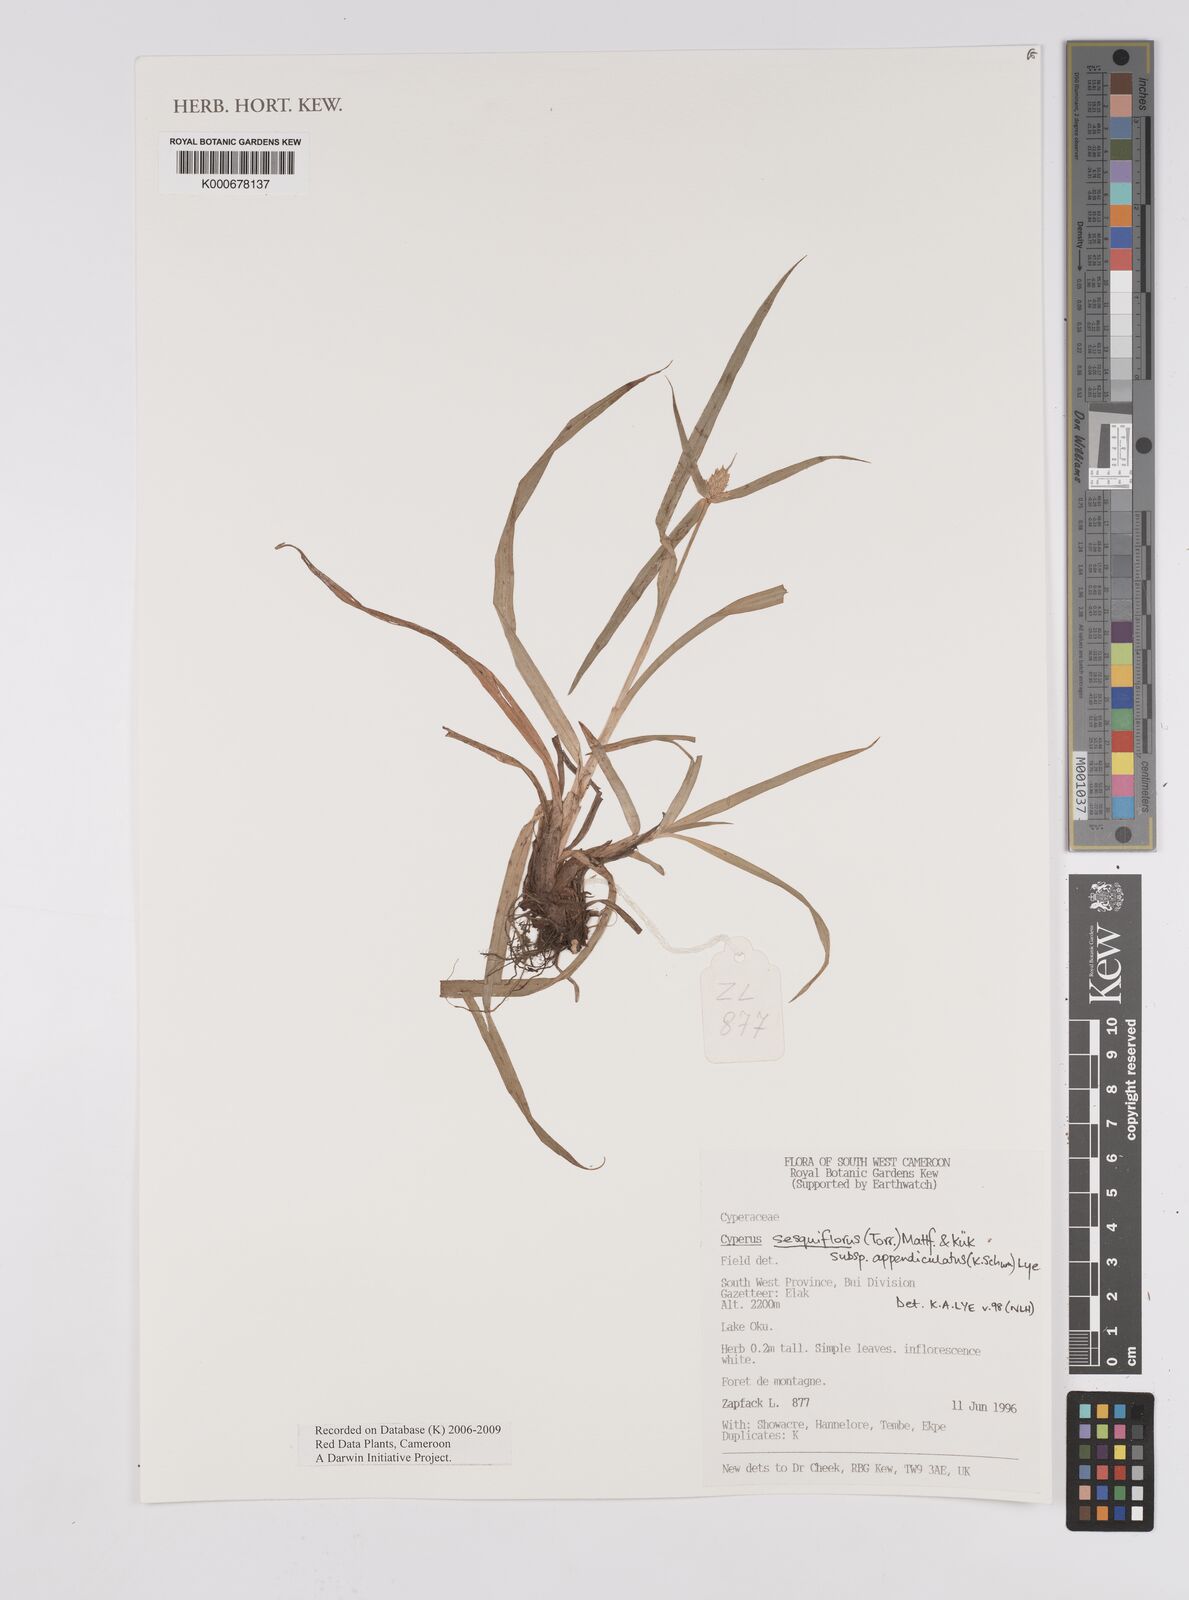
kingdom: Plantae
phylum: Tracheophyta
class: Liliopsida
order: Poales
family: Cyperaceae
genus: Cyperus
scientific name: Cyperus sesquiflorus
